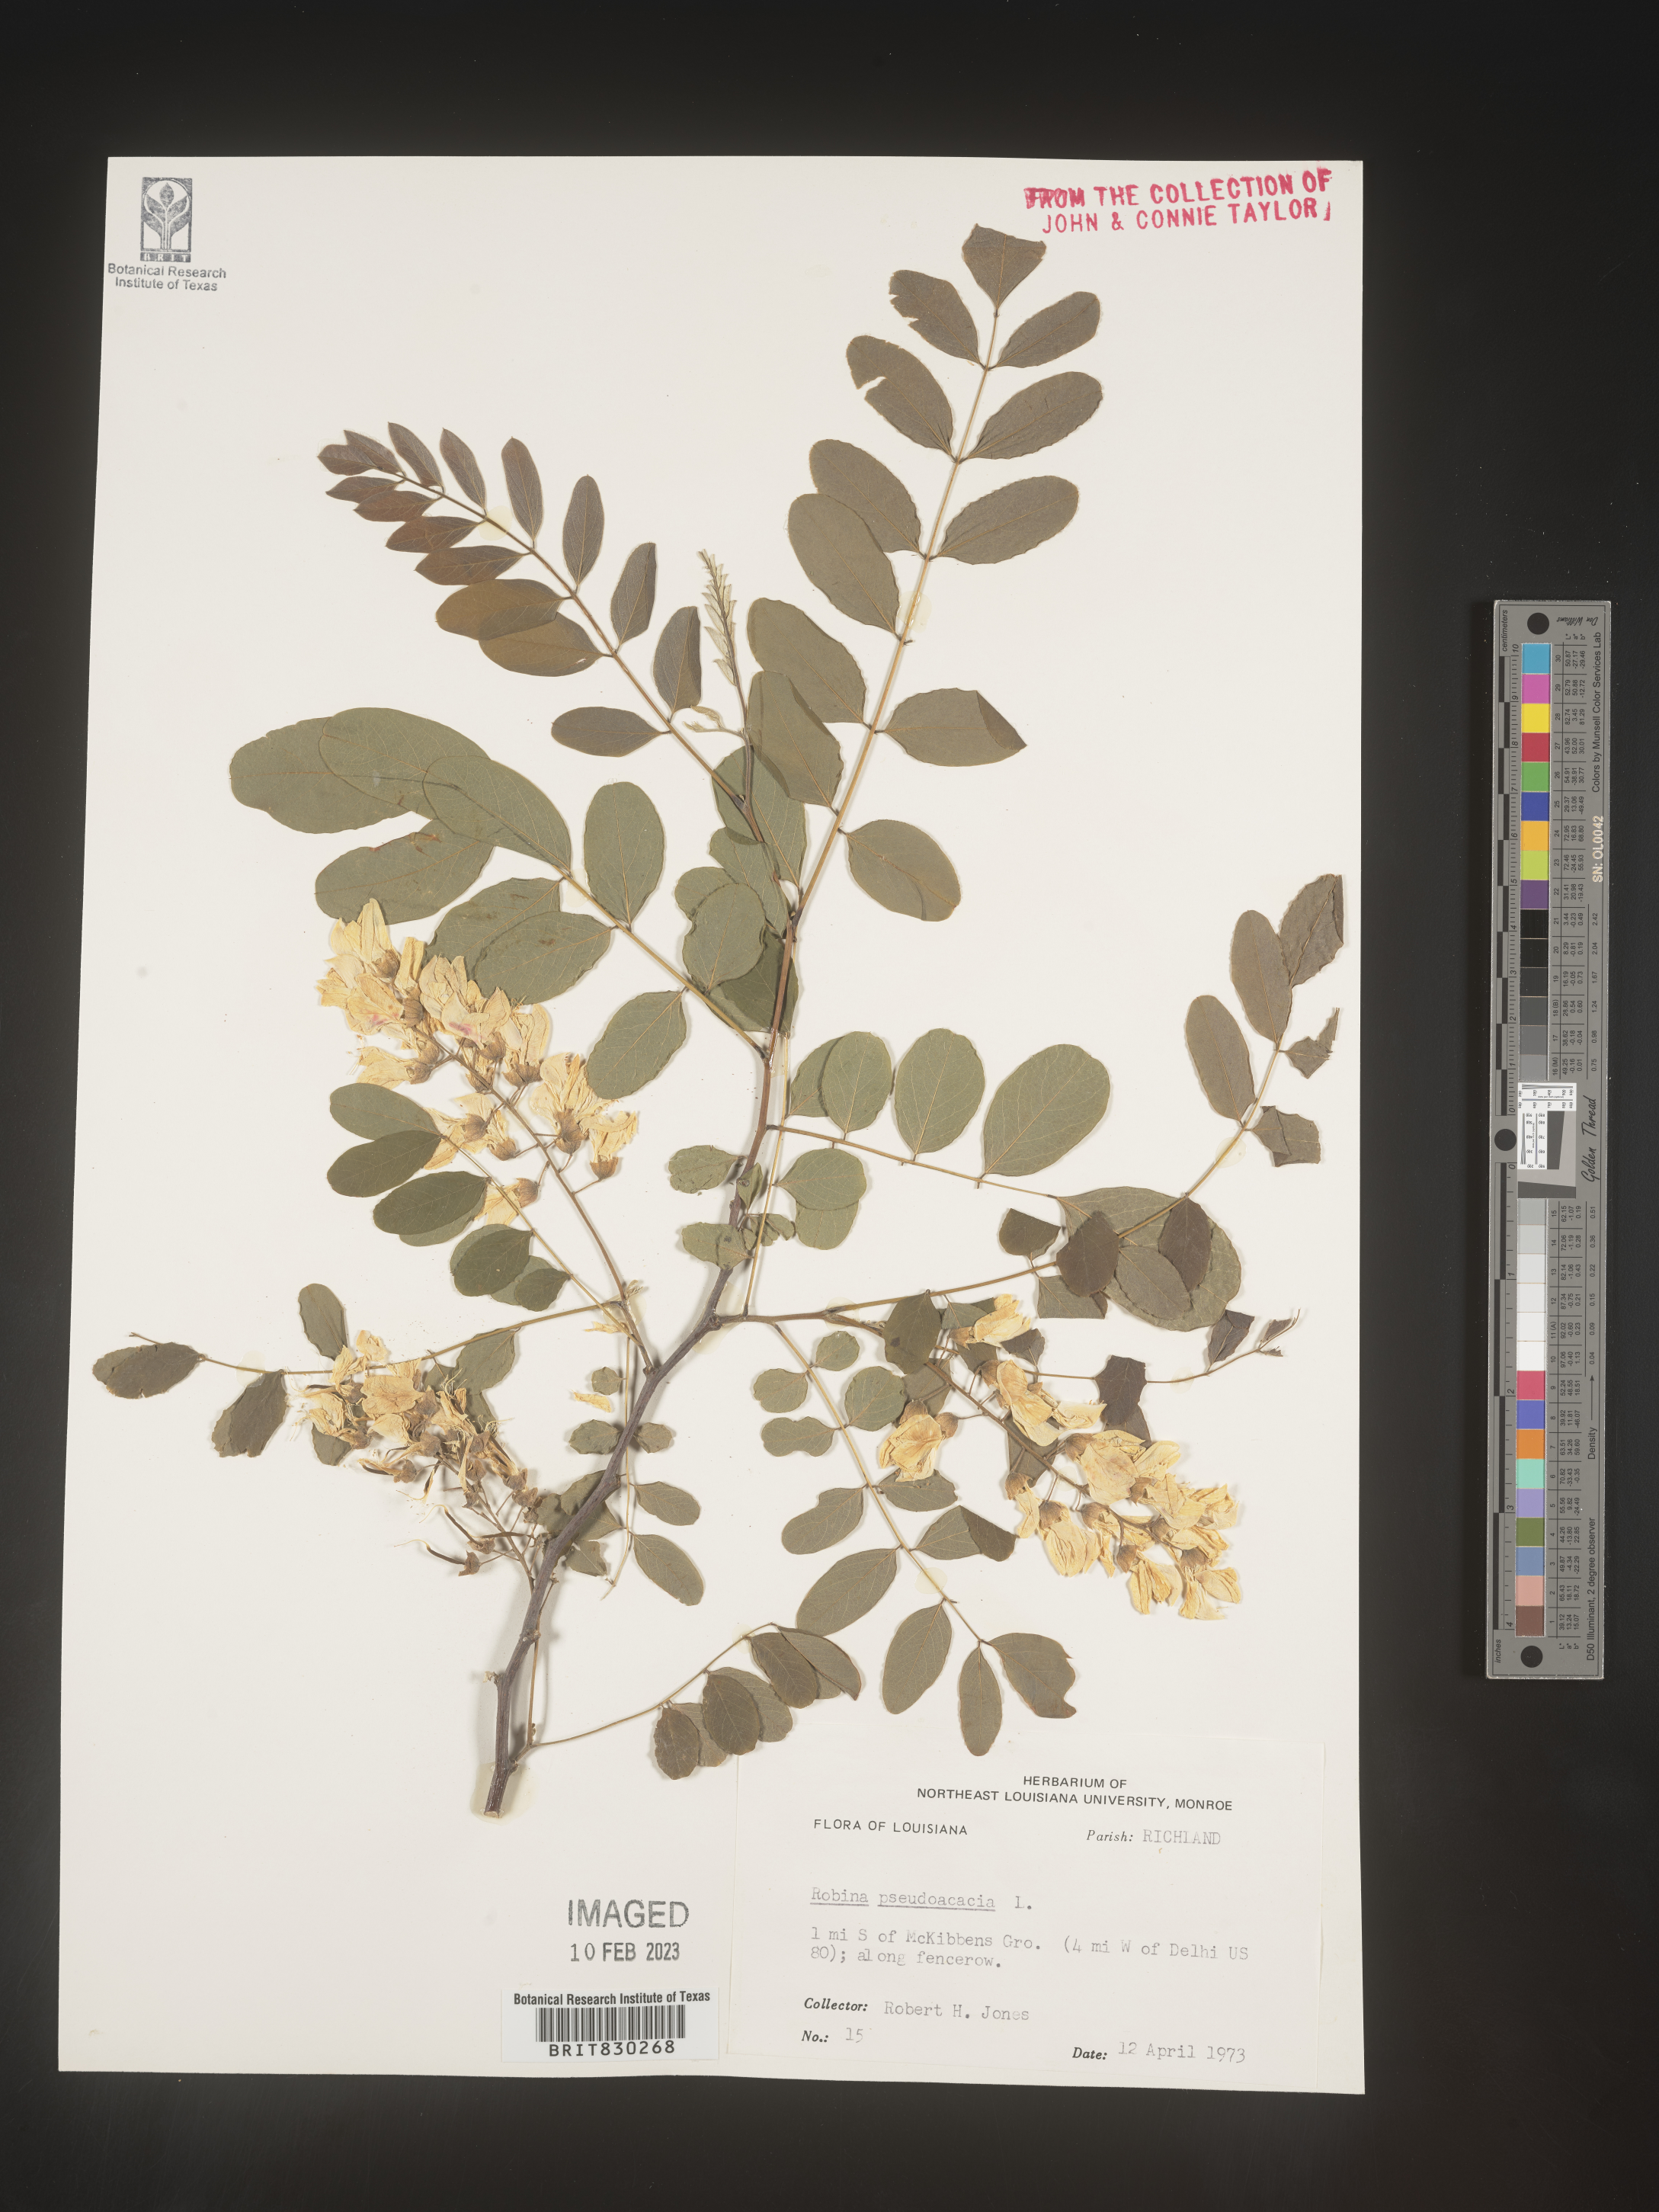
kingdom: Plantae
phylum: Tracheophyta
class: Magnoliopsida
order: Fabales
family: Fabaceae
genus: Robinia
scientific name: Robinia pseudoacacia
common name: Black locust
